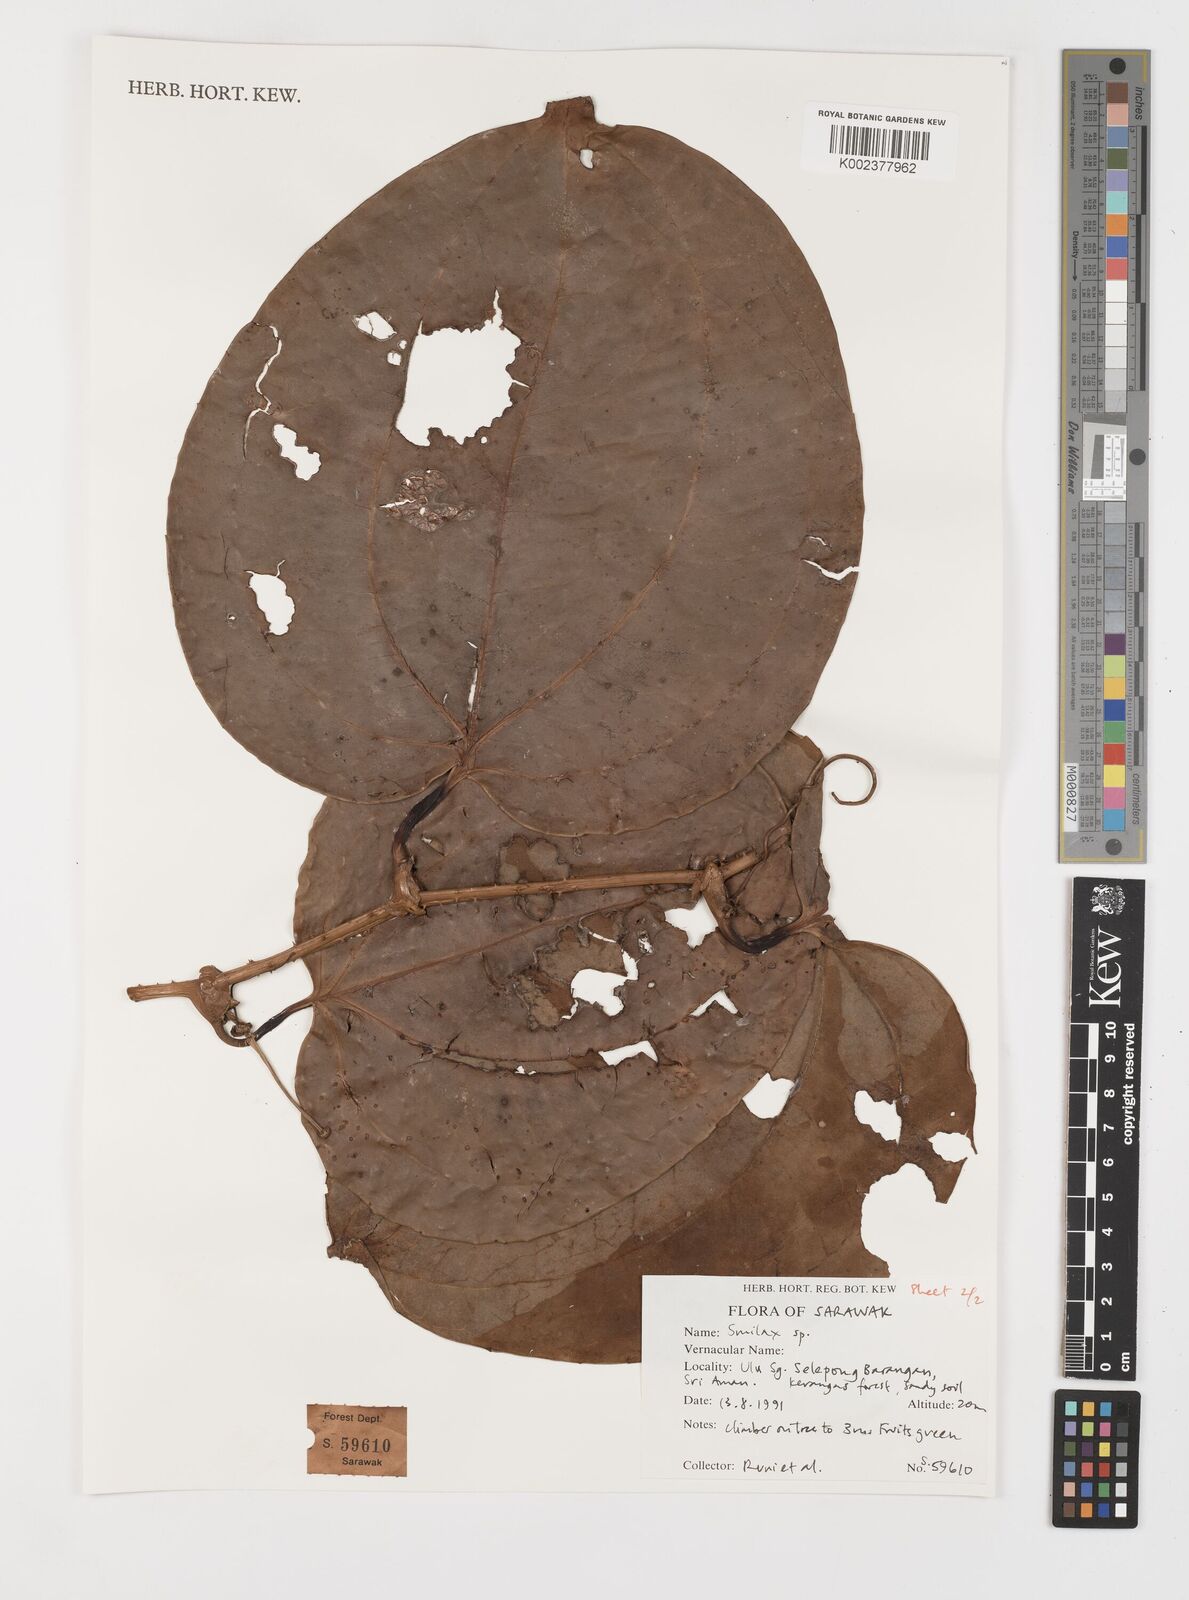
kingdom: Plantae
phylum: Tracheophyta
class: Liliopsida
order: Liliales
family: Smilacaceae
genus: Smilax
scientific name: Smilax
